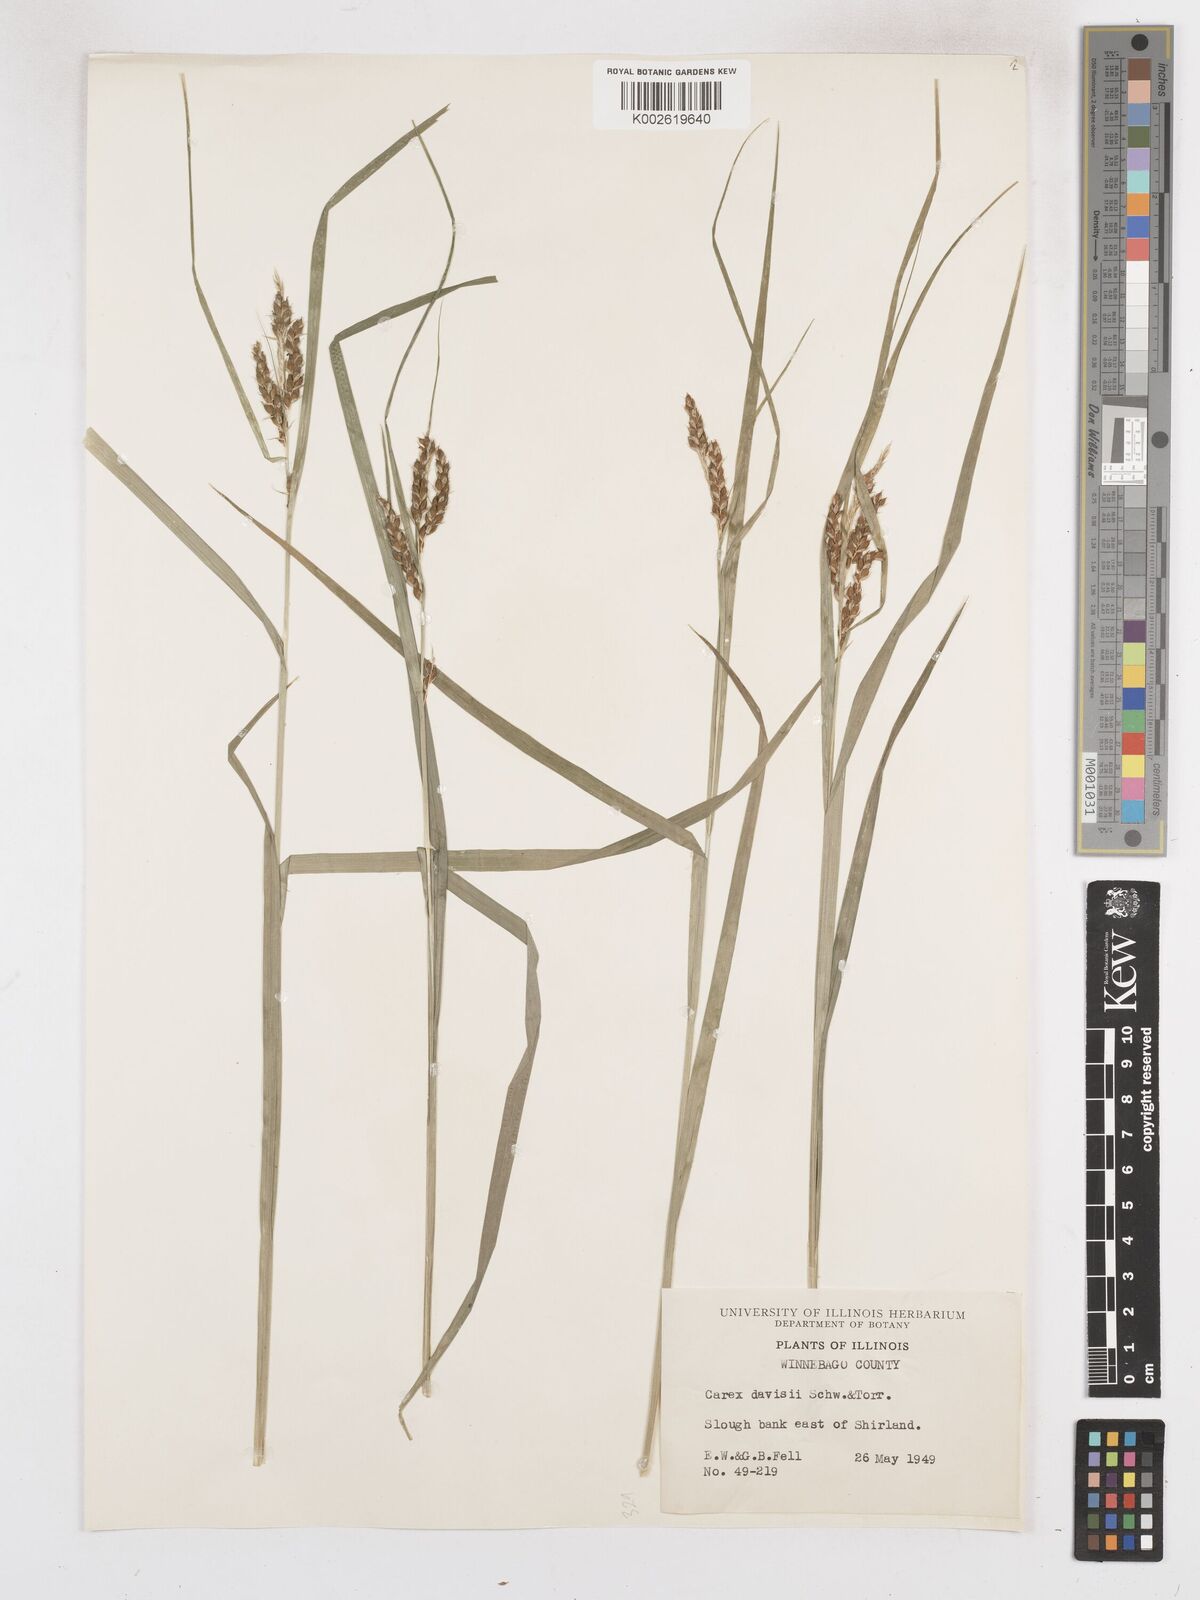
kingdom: Plantae
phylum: Tracheophyta
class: Liliopsida
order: Poales
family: Cyperaceae
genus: Carex
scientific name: Carex davisii
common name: Davis' sedge
